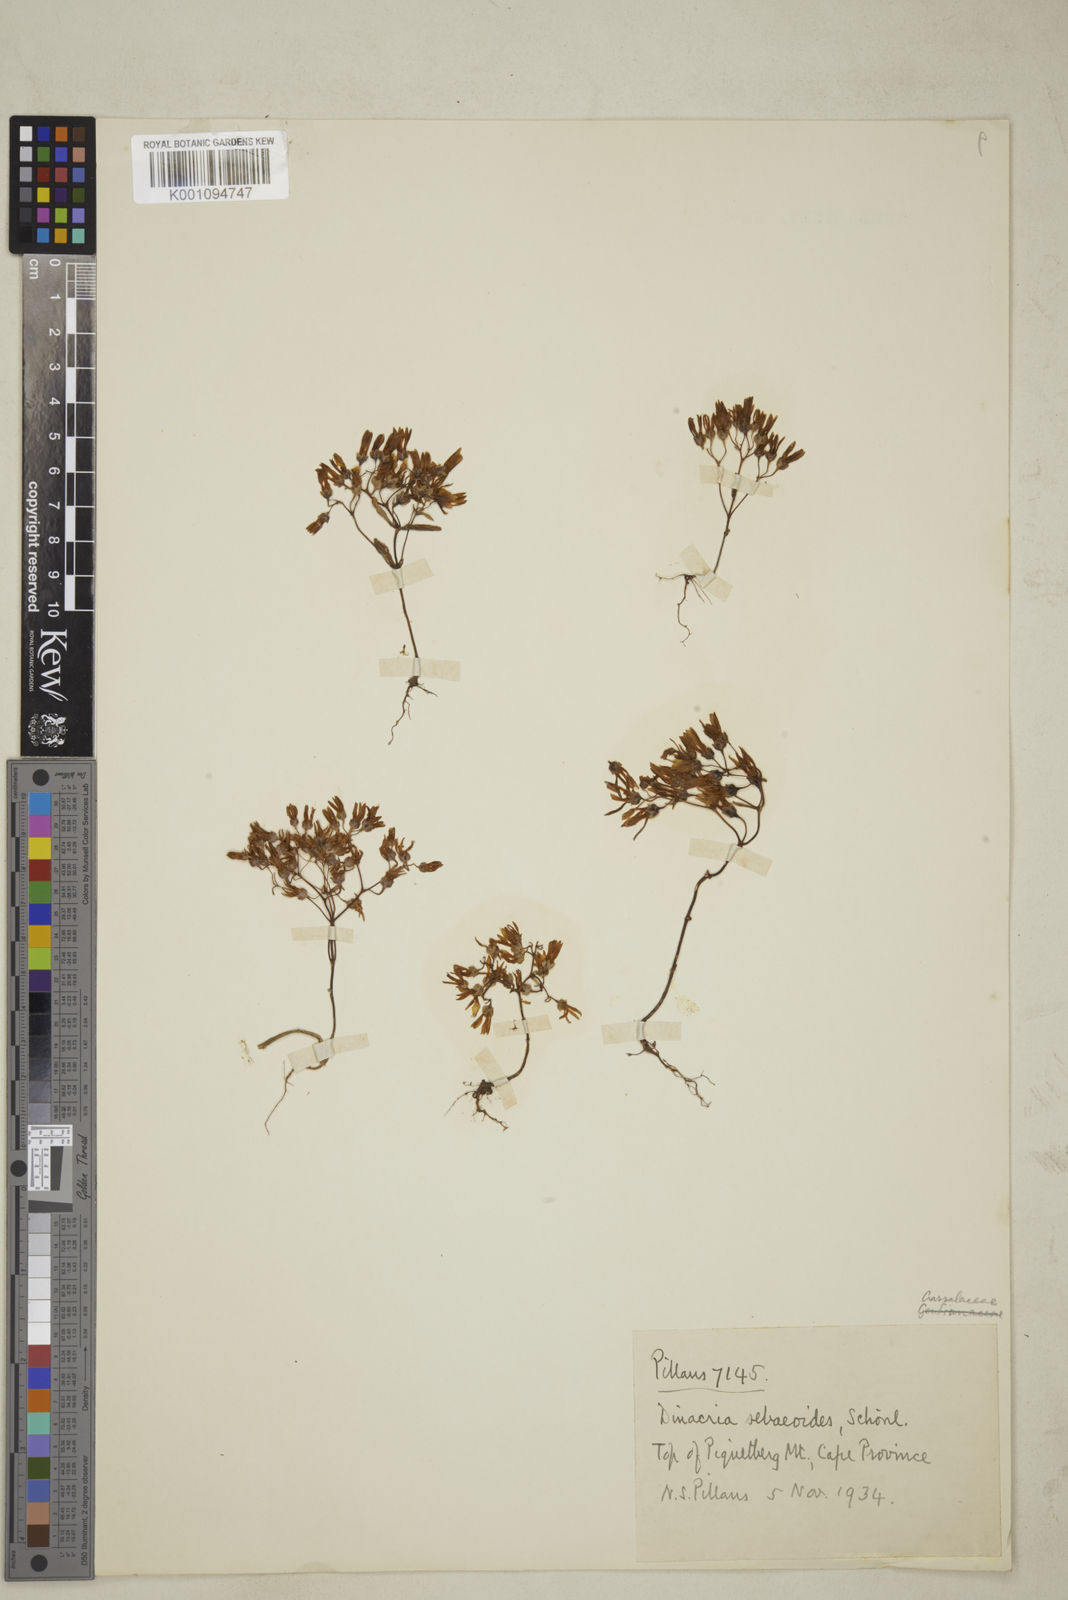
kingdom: Plantae
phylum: Tracheophyta
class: Magnoliopsida
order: Saxifragales
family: Crassulaceae
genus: Crassula
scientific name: Crassula sebaeoides
